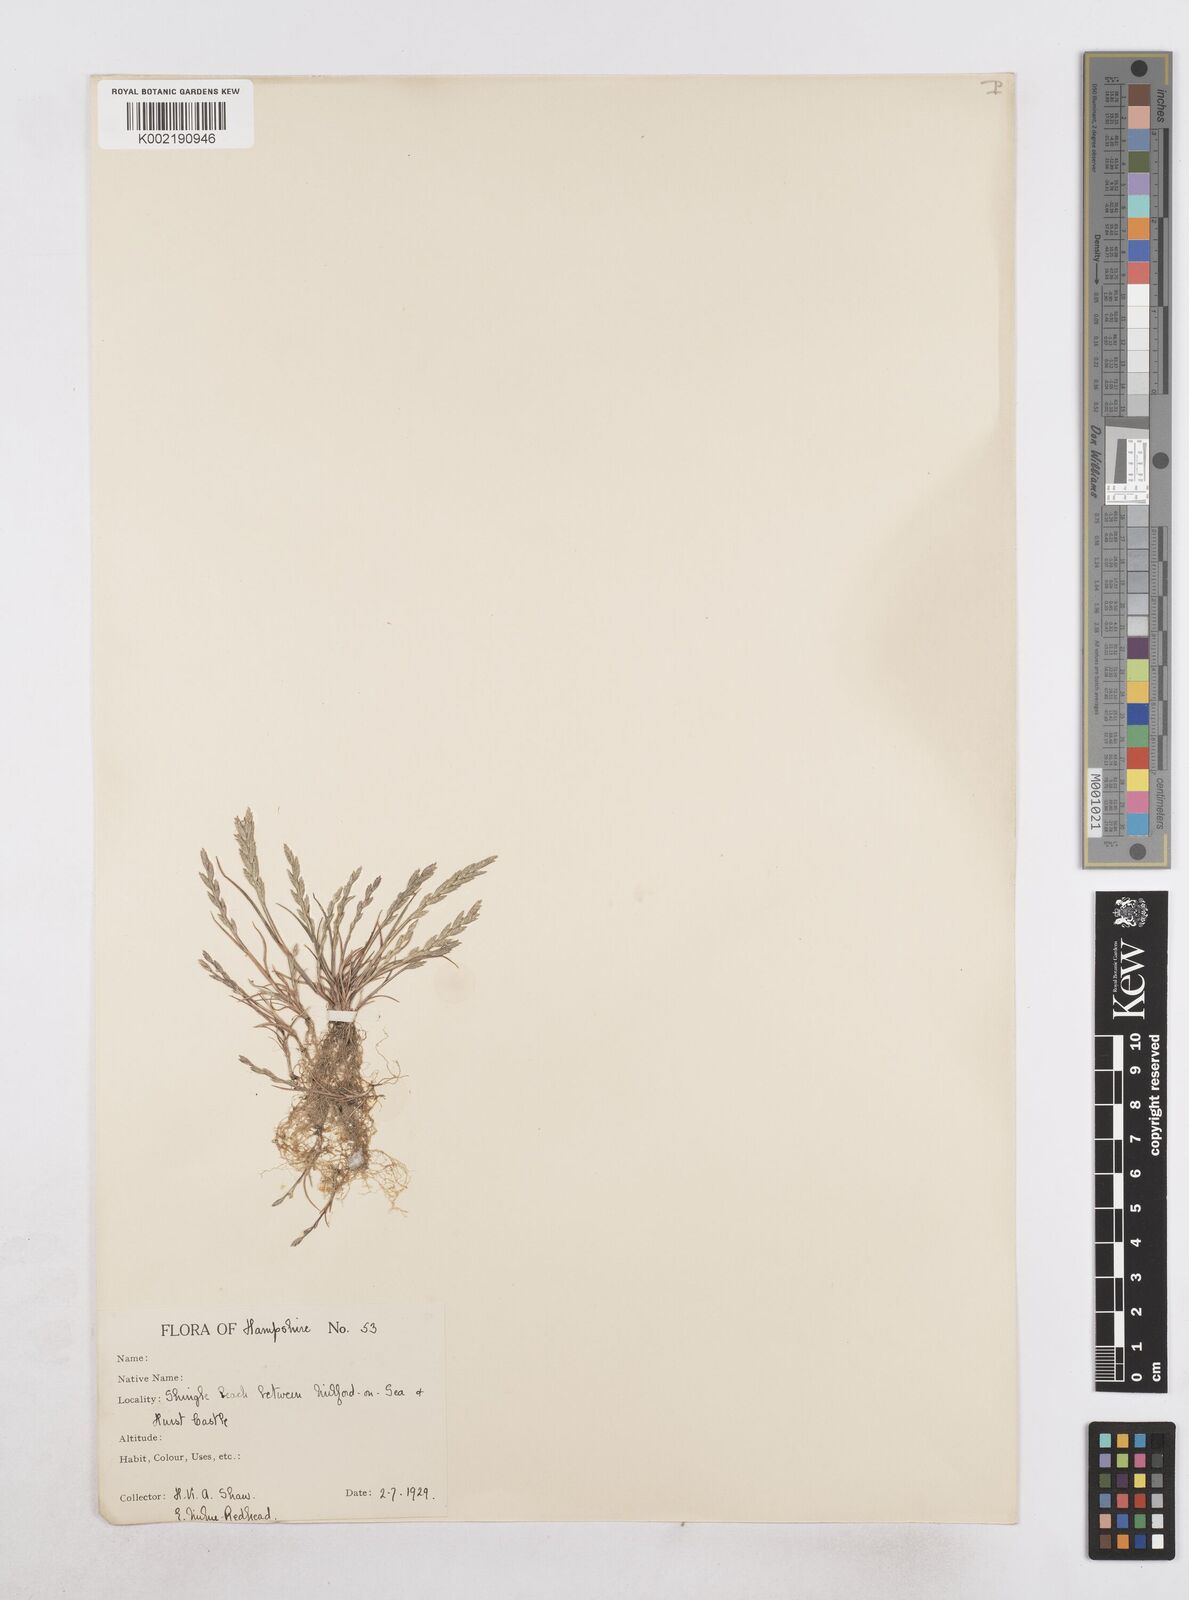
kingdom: Plantae
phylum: Tracheophyta
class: Liliopsida
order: Poales
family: Poaceae
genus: Catapodium
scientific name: Catapodium marinum
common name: Sea fern-grass
